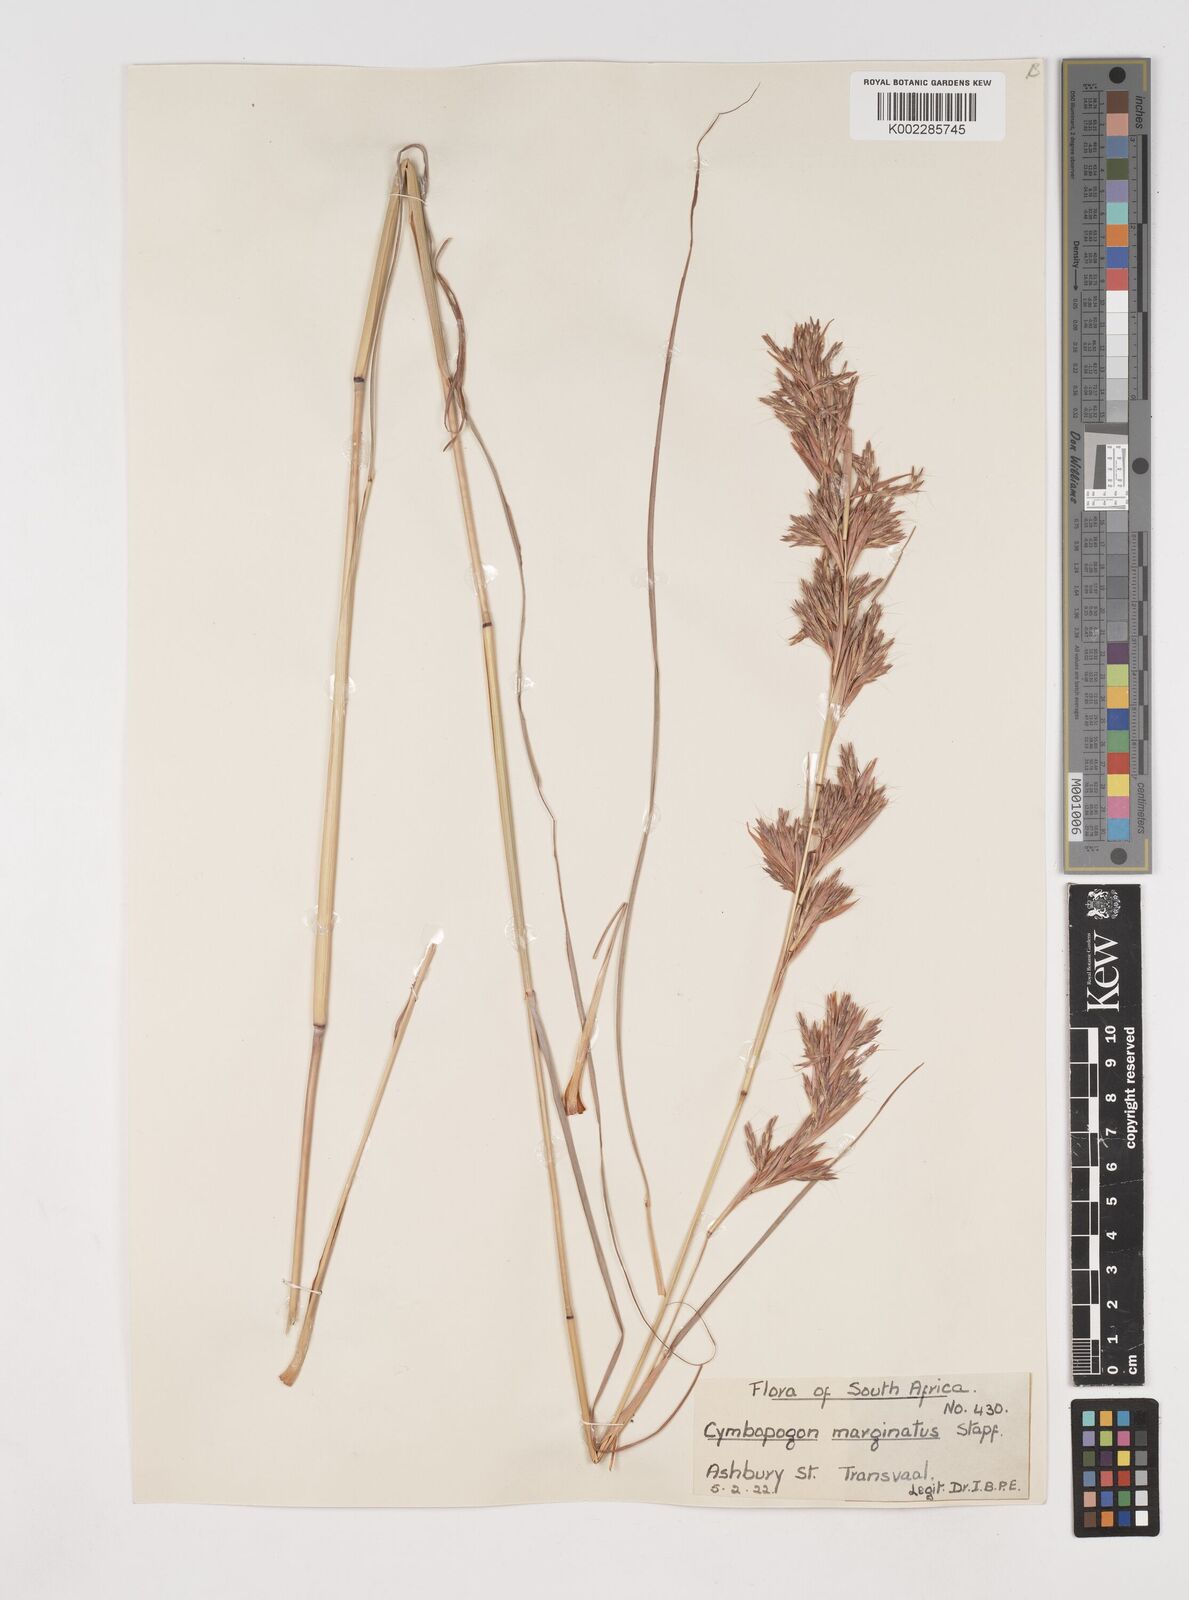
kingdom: Plantae
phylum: Tracheophyta
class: Liliopsida
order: Poales
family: Poaceae
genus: Cymbopogon
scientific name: Cymbopogon nardus
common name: Giant turpentine grass
